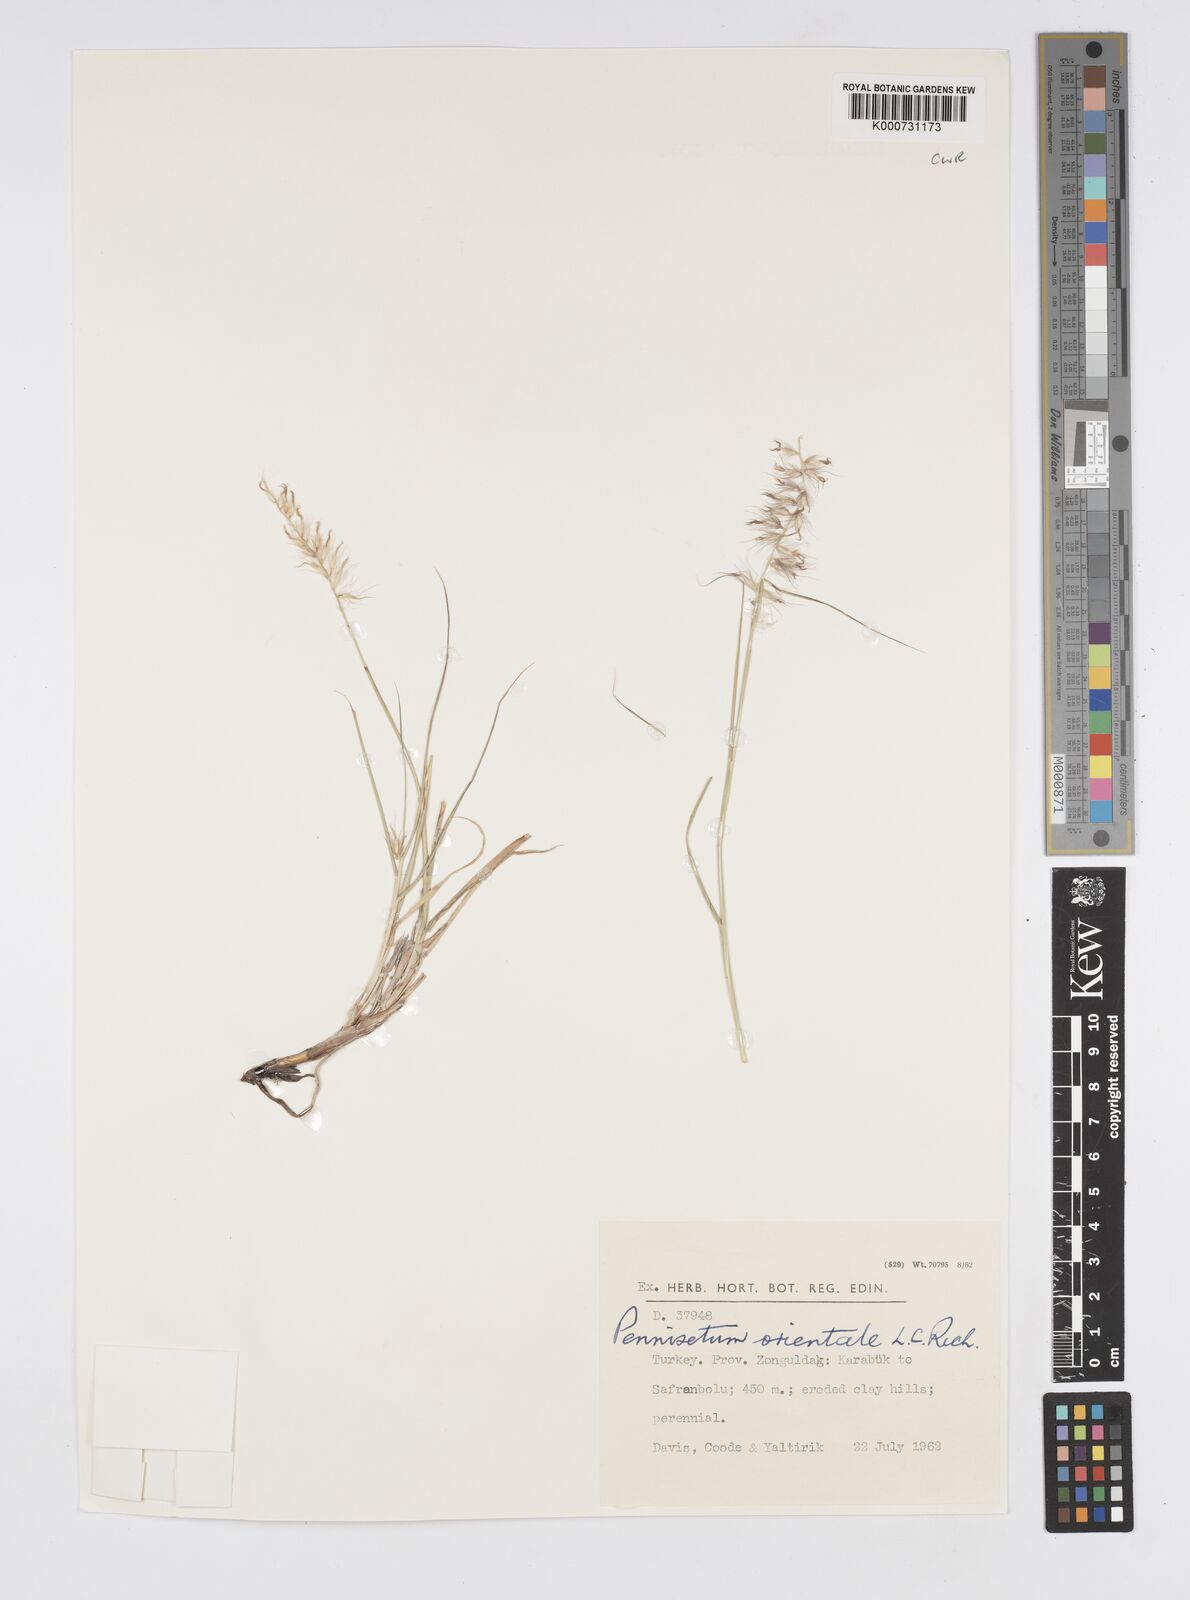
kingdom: Plantae
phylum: Tracheophyta
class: Liliopsida
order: Poales
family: Poaceae
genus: Cenchrus
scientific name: Cenchrus orientalis
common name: Oriental fountain grass
